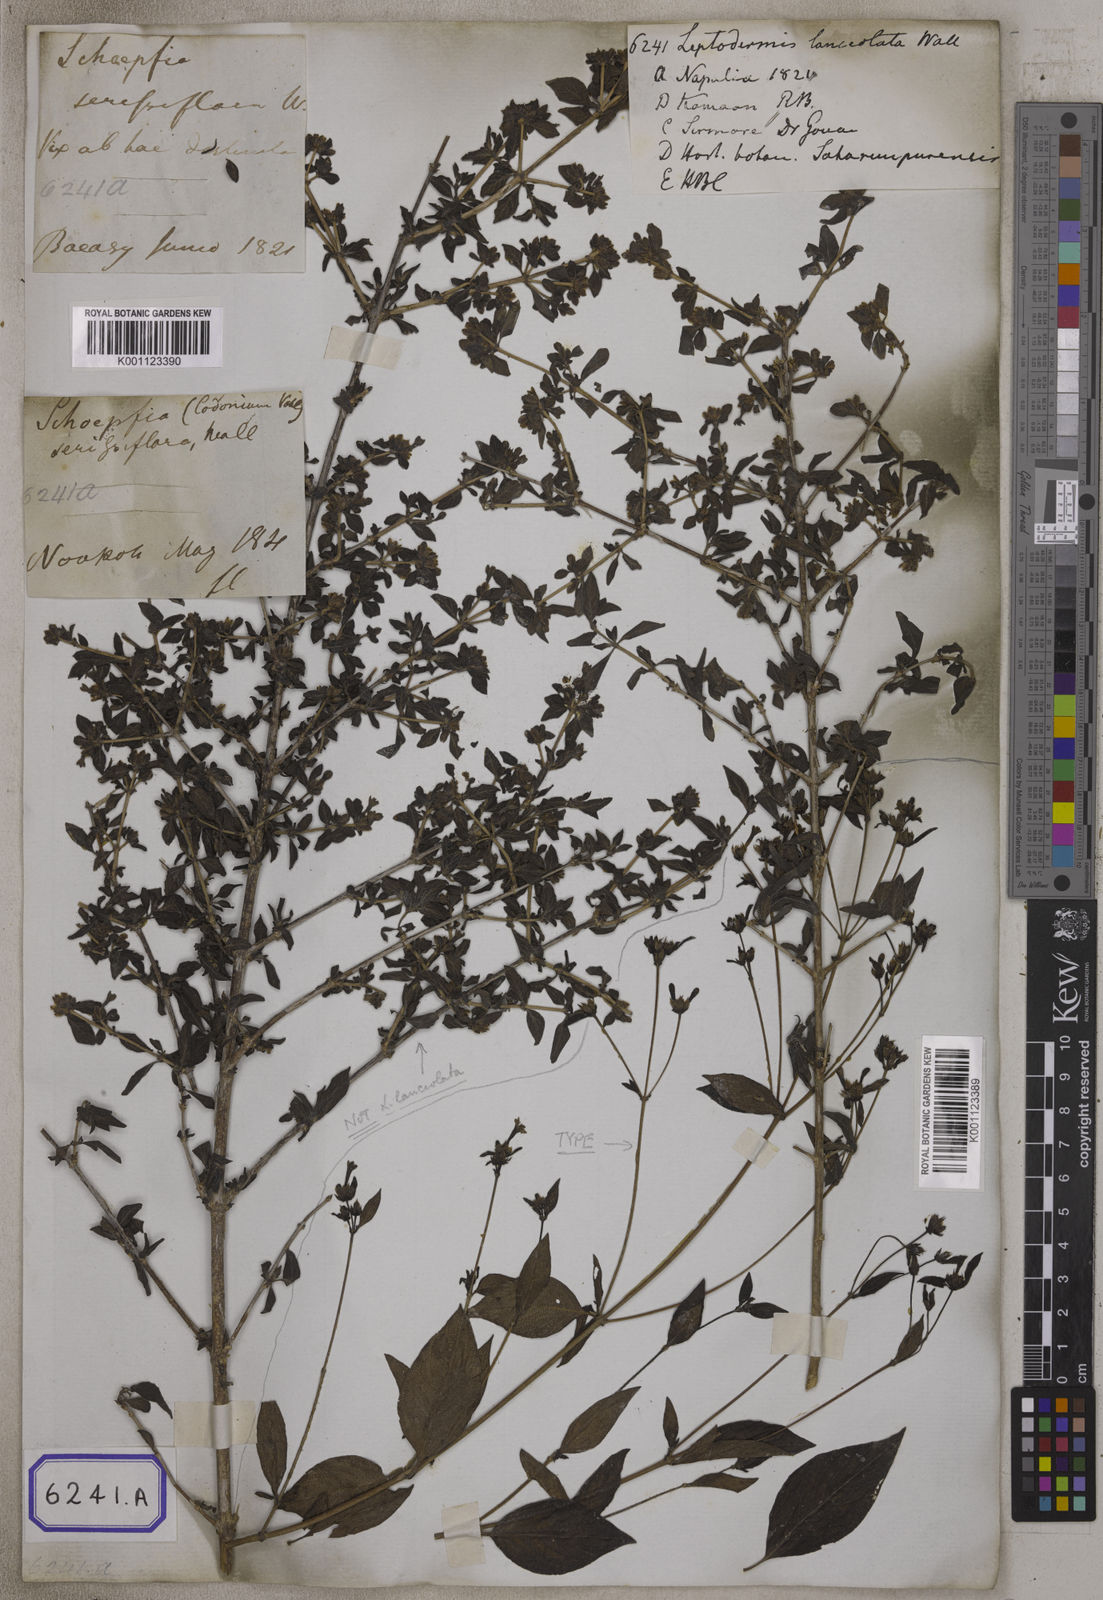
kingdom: Plantae
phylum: Tracheophyta
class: Magnoliopsida
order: Gentianales
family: Rubiaceae
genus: Leptodermis
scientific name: Leptodermis lanceolata
